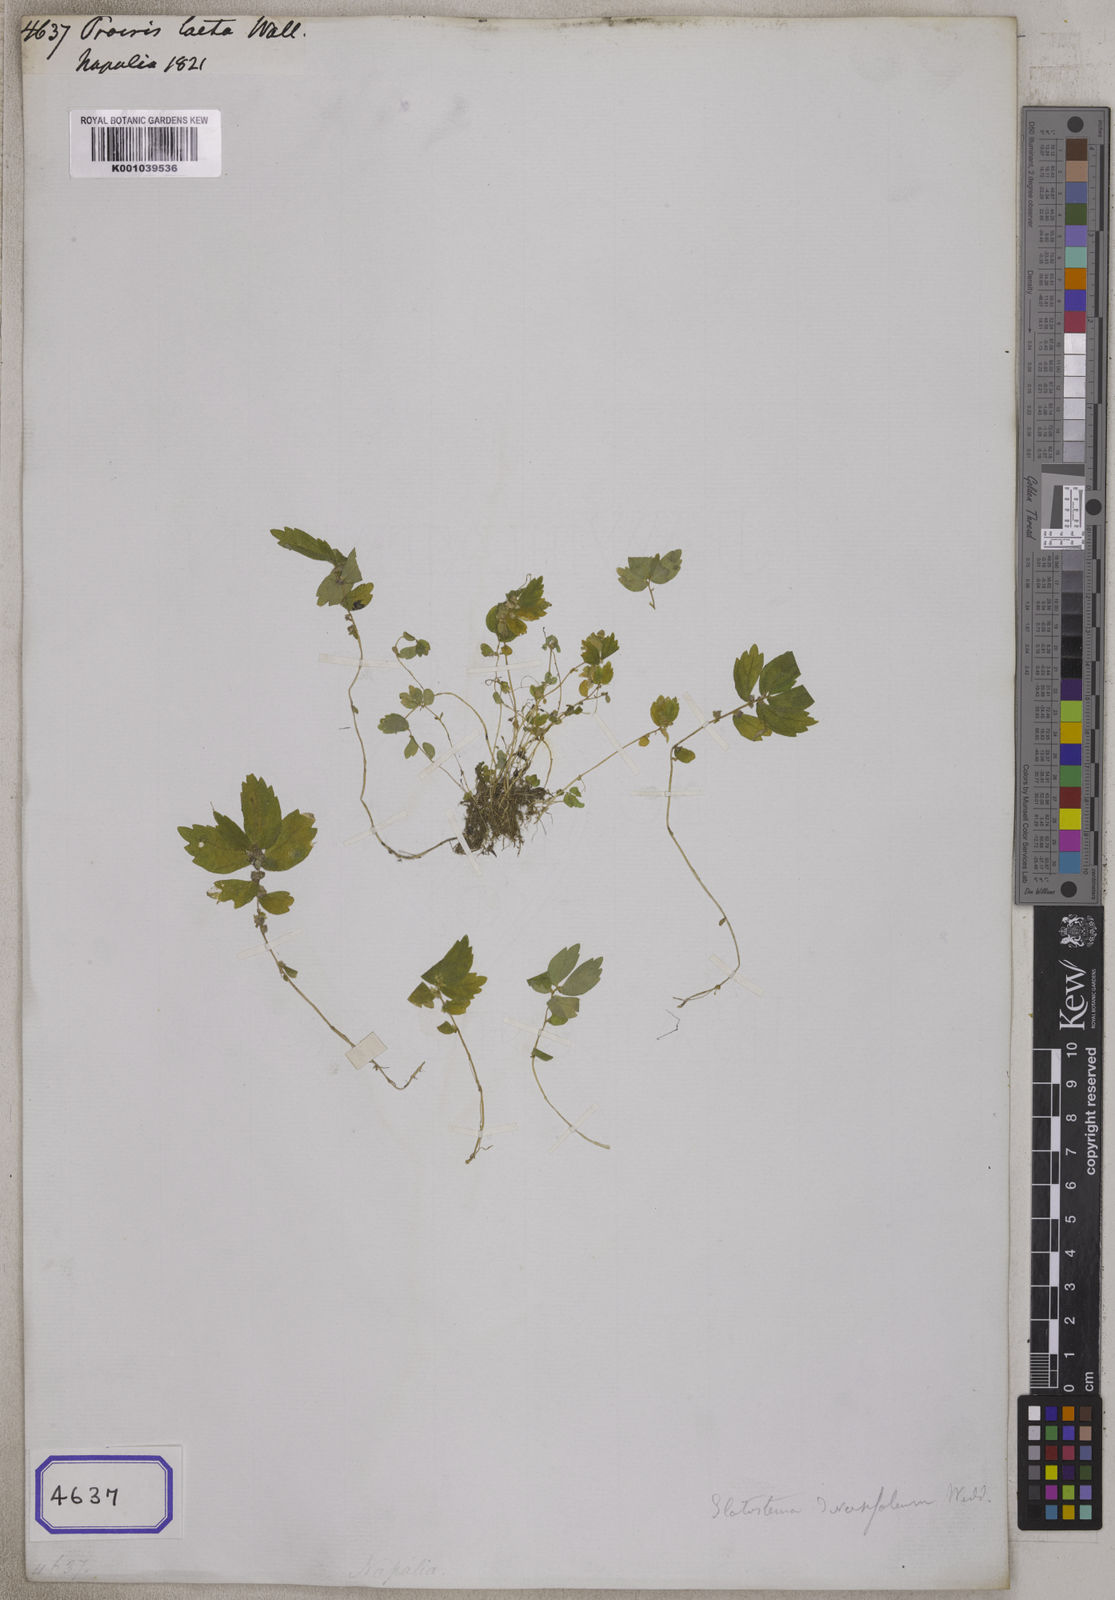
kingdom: Plantae
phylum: Tracheophyta
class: Magnoliopsida
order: Rosales
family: Urticaceae
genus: Elatostema
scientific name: Elatostema monandrum
